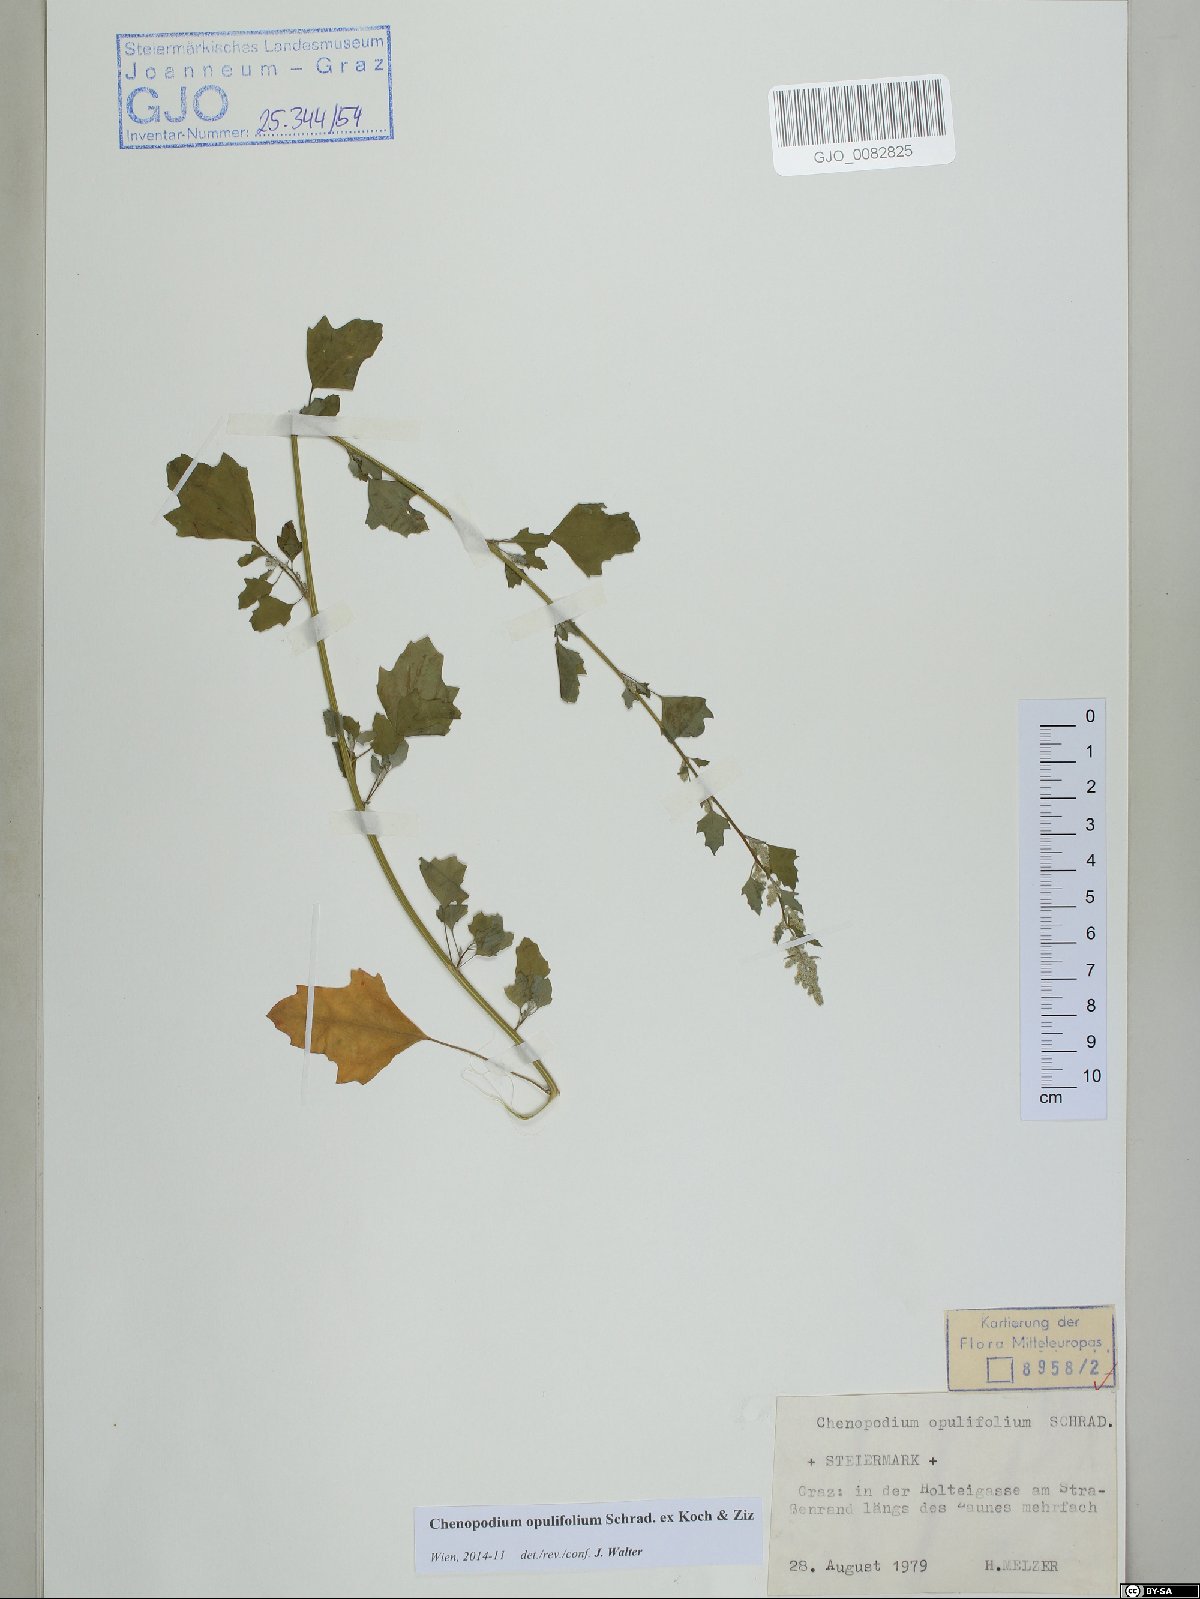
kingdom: Plantae
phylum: Tracheophyta
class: Magnoliopsida
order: Caryophyllales
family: Amaranthaceae
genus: Chenopodium
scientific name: Chenopodium opulifolium
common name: Grey goosefoot
